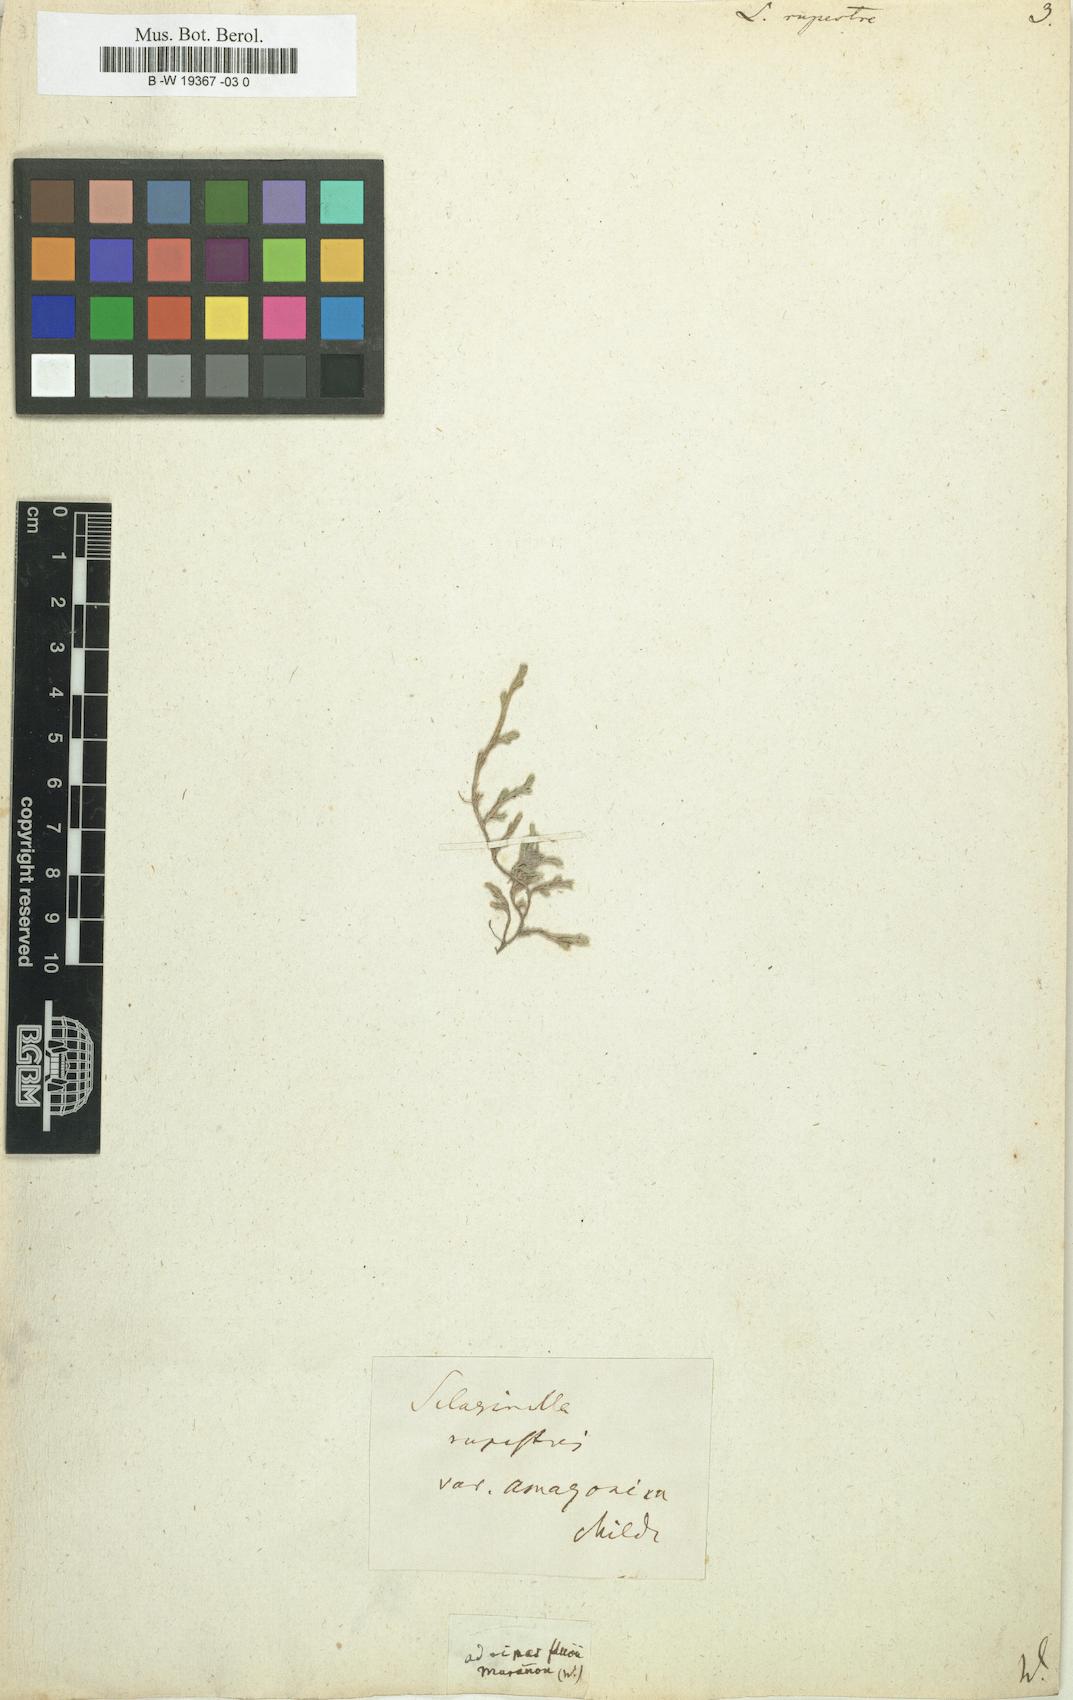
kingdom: Plantae
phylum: Tracheophyta
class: Lycopodiopsida
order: Selaginellales
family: Selaginellaceae
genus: Selaginella
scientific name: Selaginella
